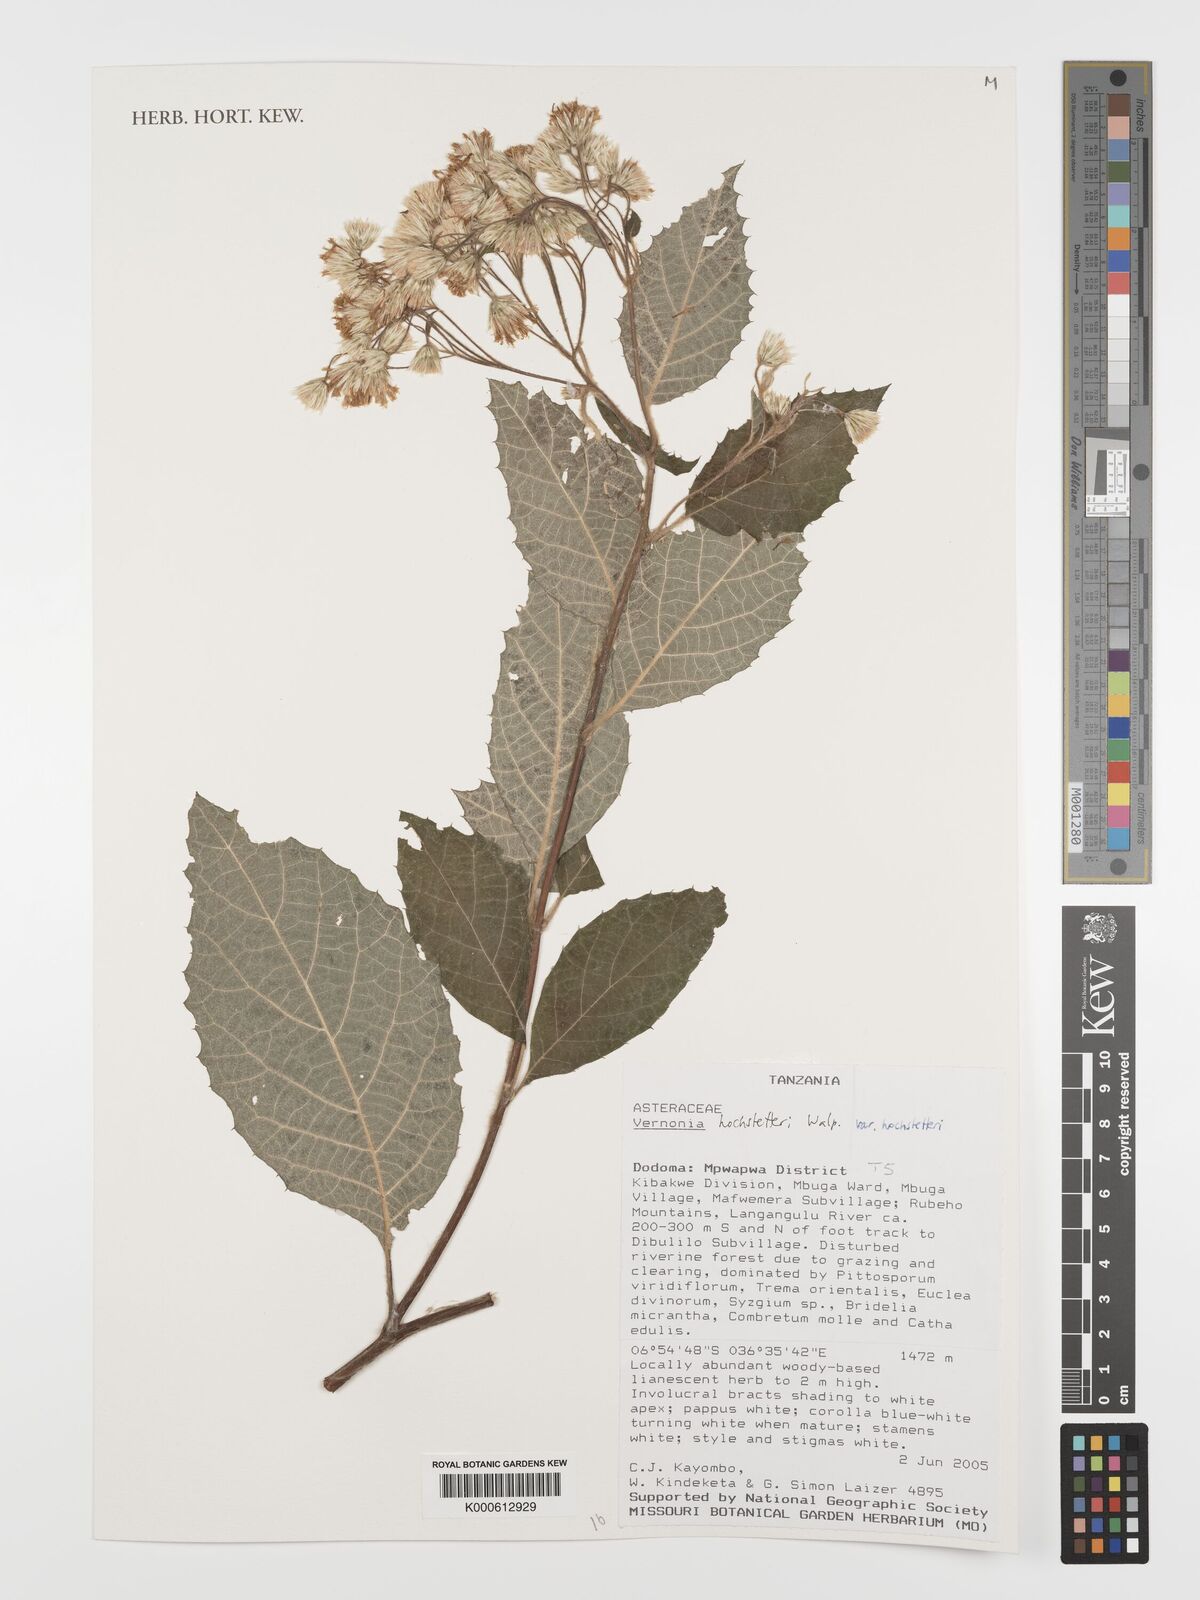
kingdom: Plantae
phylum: Tracheophyta
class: Magnoliopsida
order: Asterales
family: Asteraceae
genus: Ambassa
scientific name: Ambassa hochstetteri
